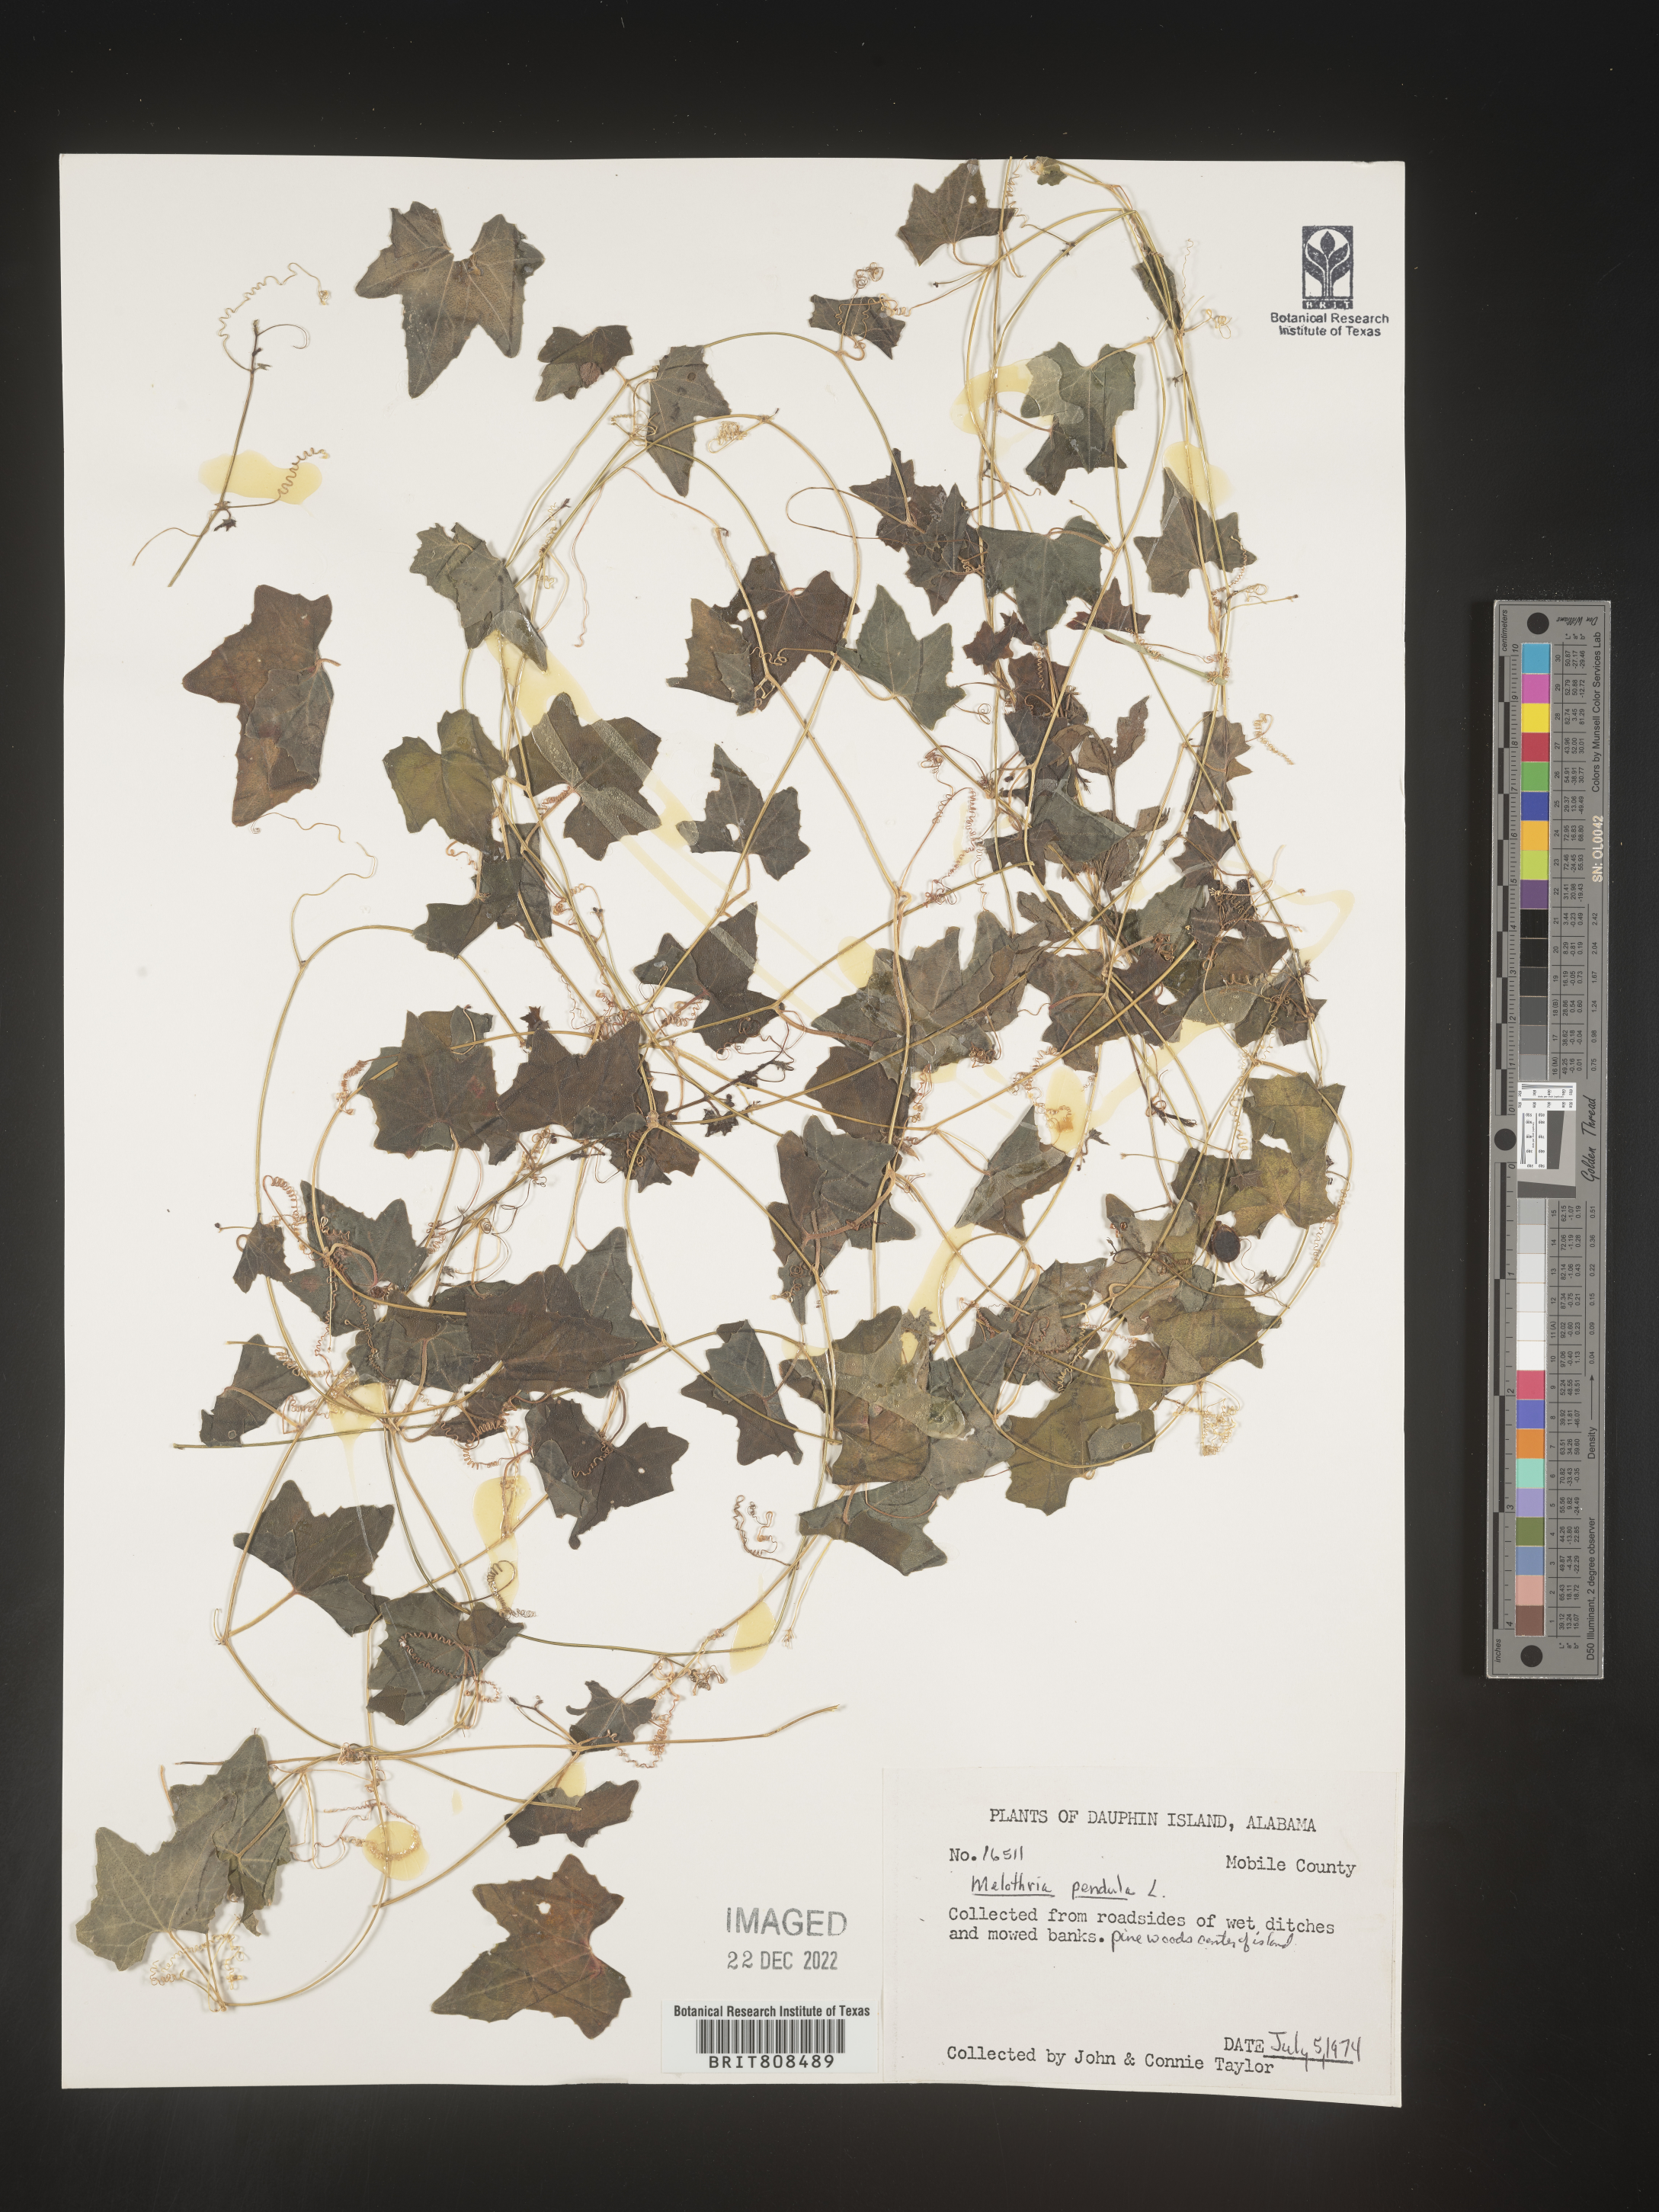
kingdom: Plantae
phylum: Tracheophyta
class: Magnoliopsida
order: Cucurbitales
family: Cucurbitaceae
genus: Melothria
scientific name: Melothria pendula
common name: Creeping-cucumber
